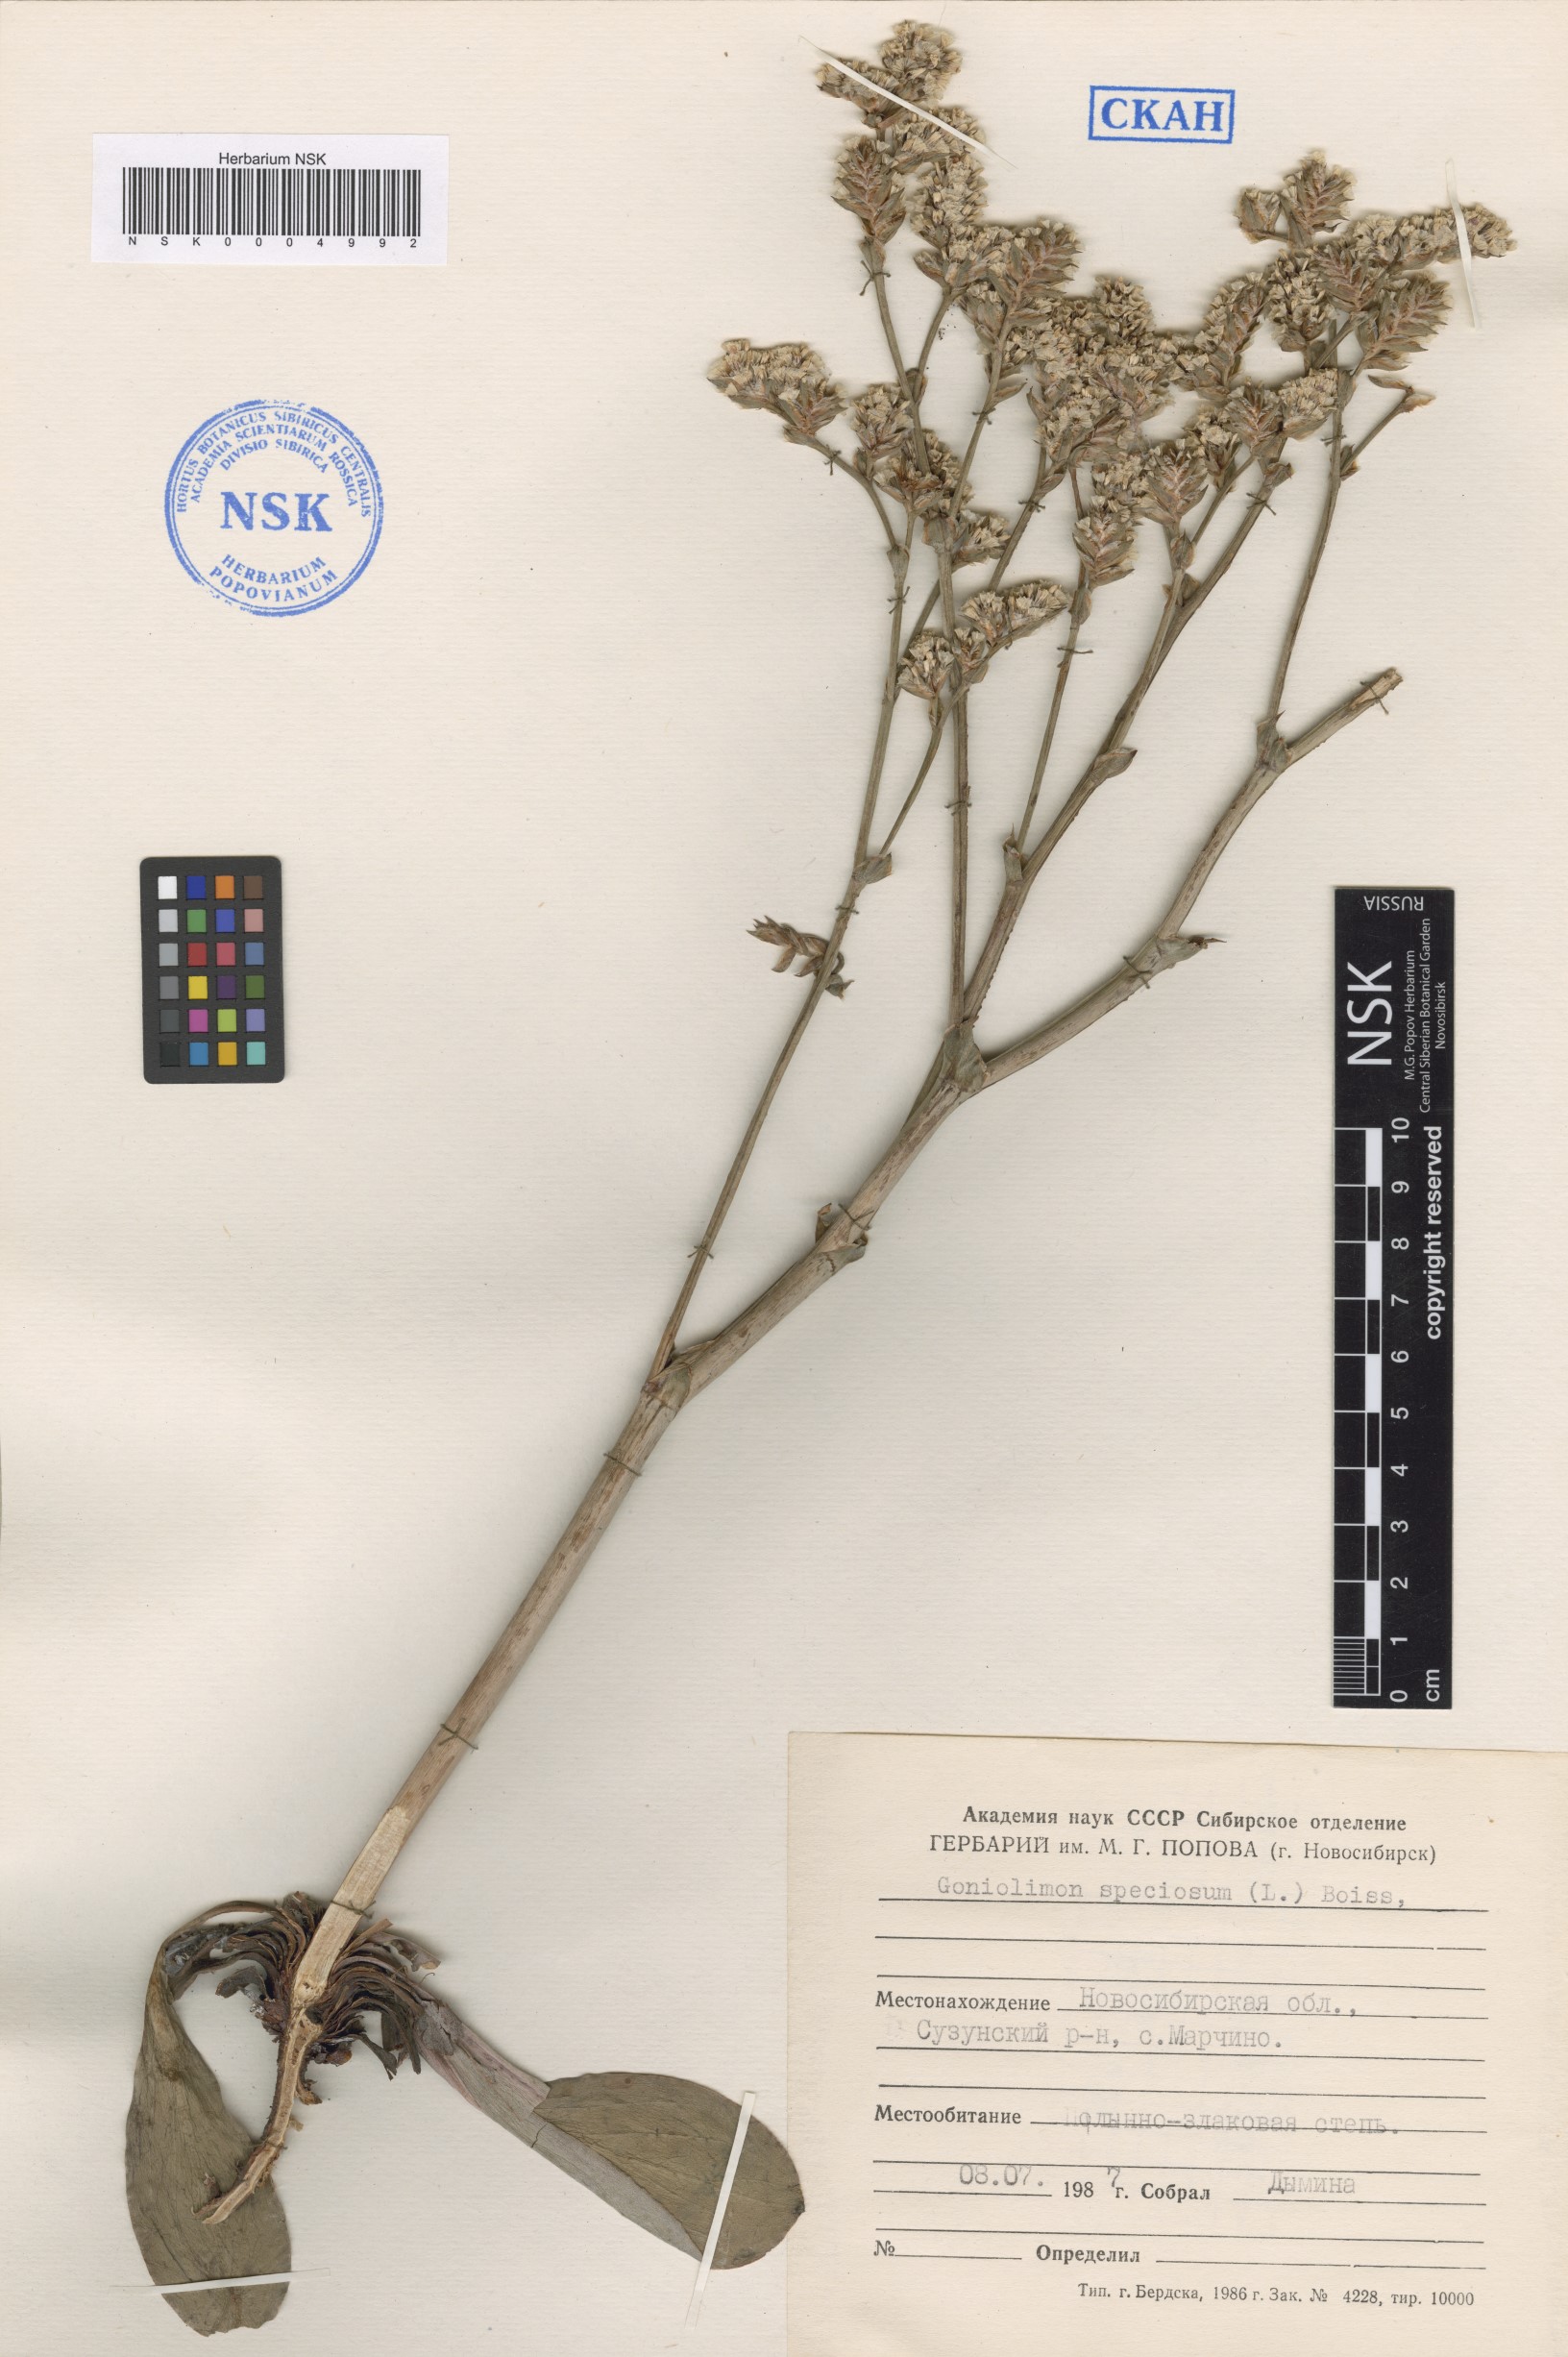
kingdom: Plantae
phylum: Tracheophyta
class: Magnoliopsida
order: Caryophyllales
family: Plumbaginaceae
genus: Goniolimon
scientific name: Goniolimon speciosum
